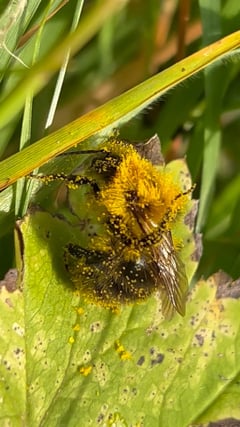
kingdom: Animalia
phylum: Arthropoda
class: Insecta
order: Hymenoptera
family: Apidae
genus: Bombus
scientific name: Bombus pascuorum
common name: Common carder bee
